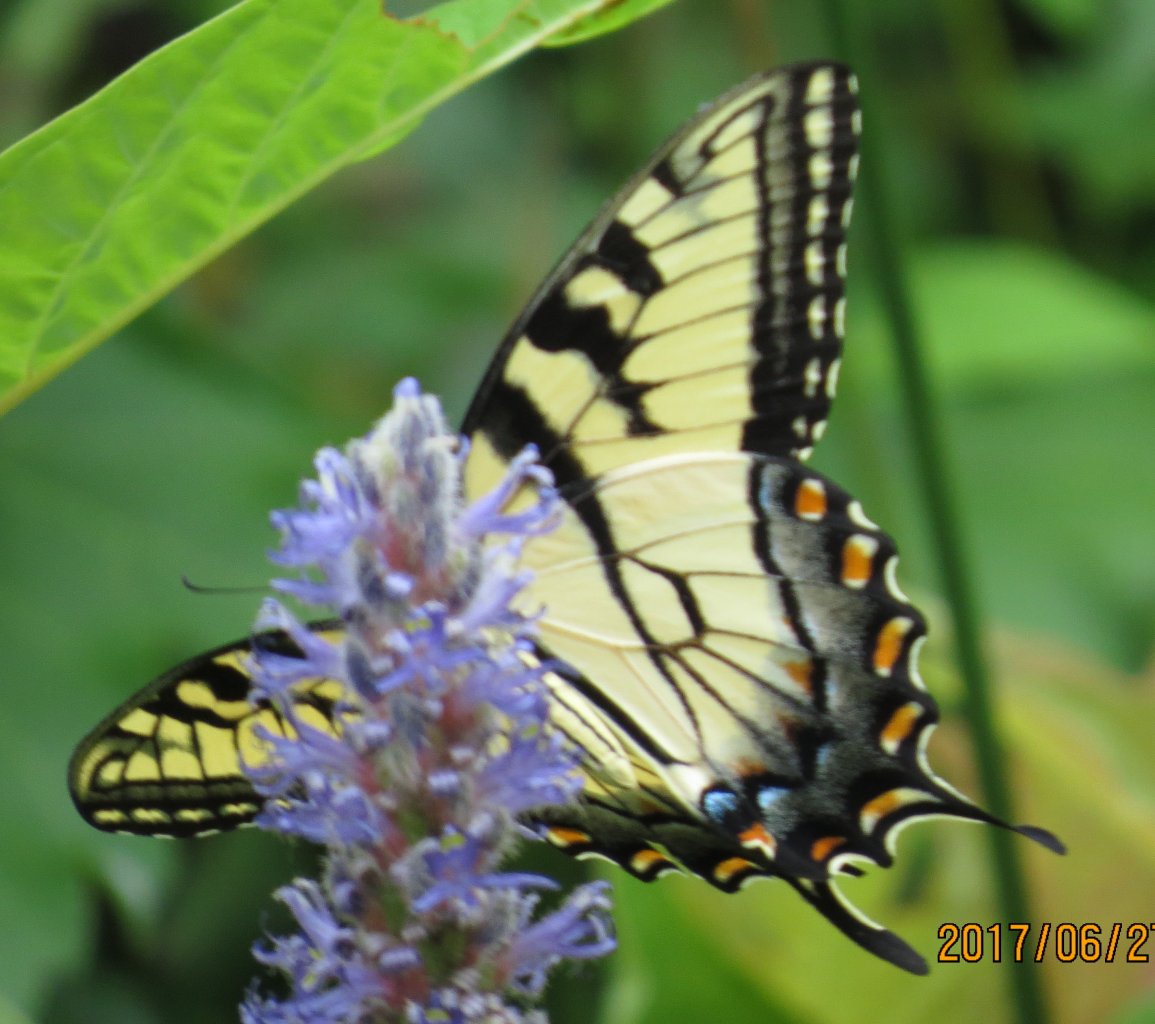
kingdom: Animalia
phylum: Arthropoda
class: Insecta
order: Lepidoptera
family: Papilionidae
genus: Pterourus
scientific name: Pterourus glaucus
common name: Eastern Tiger Swallowtail
